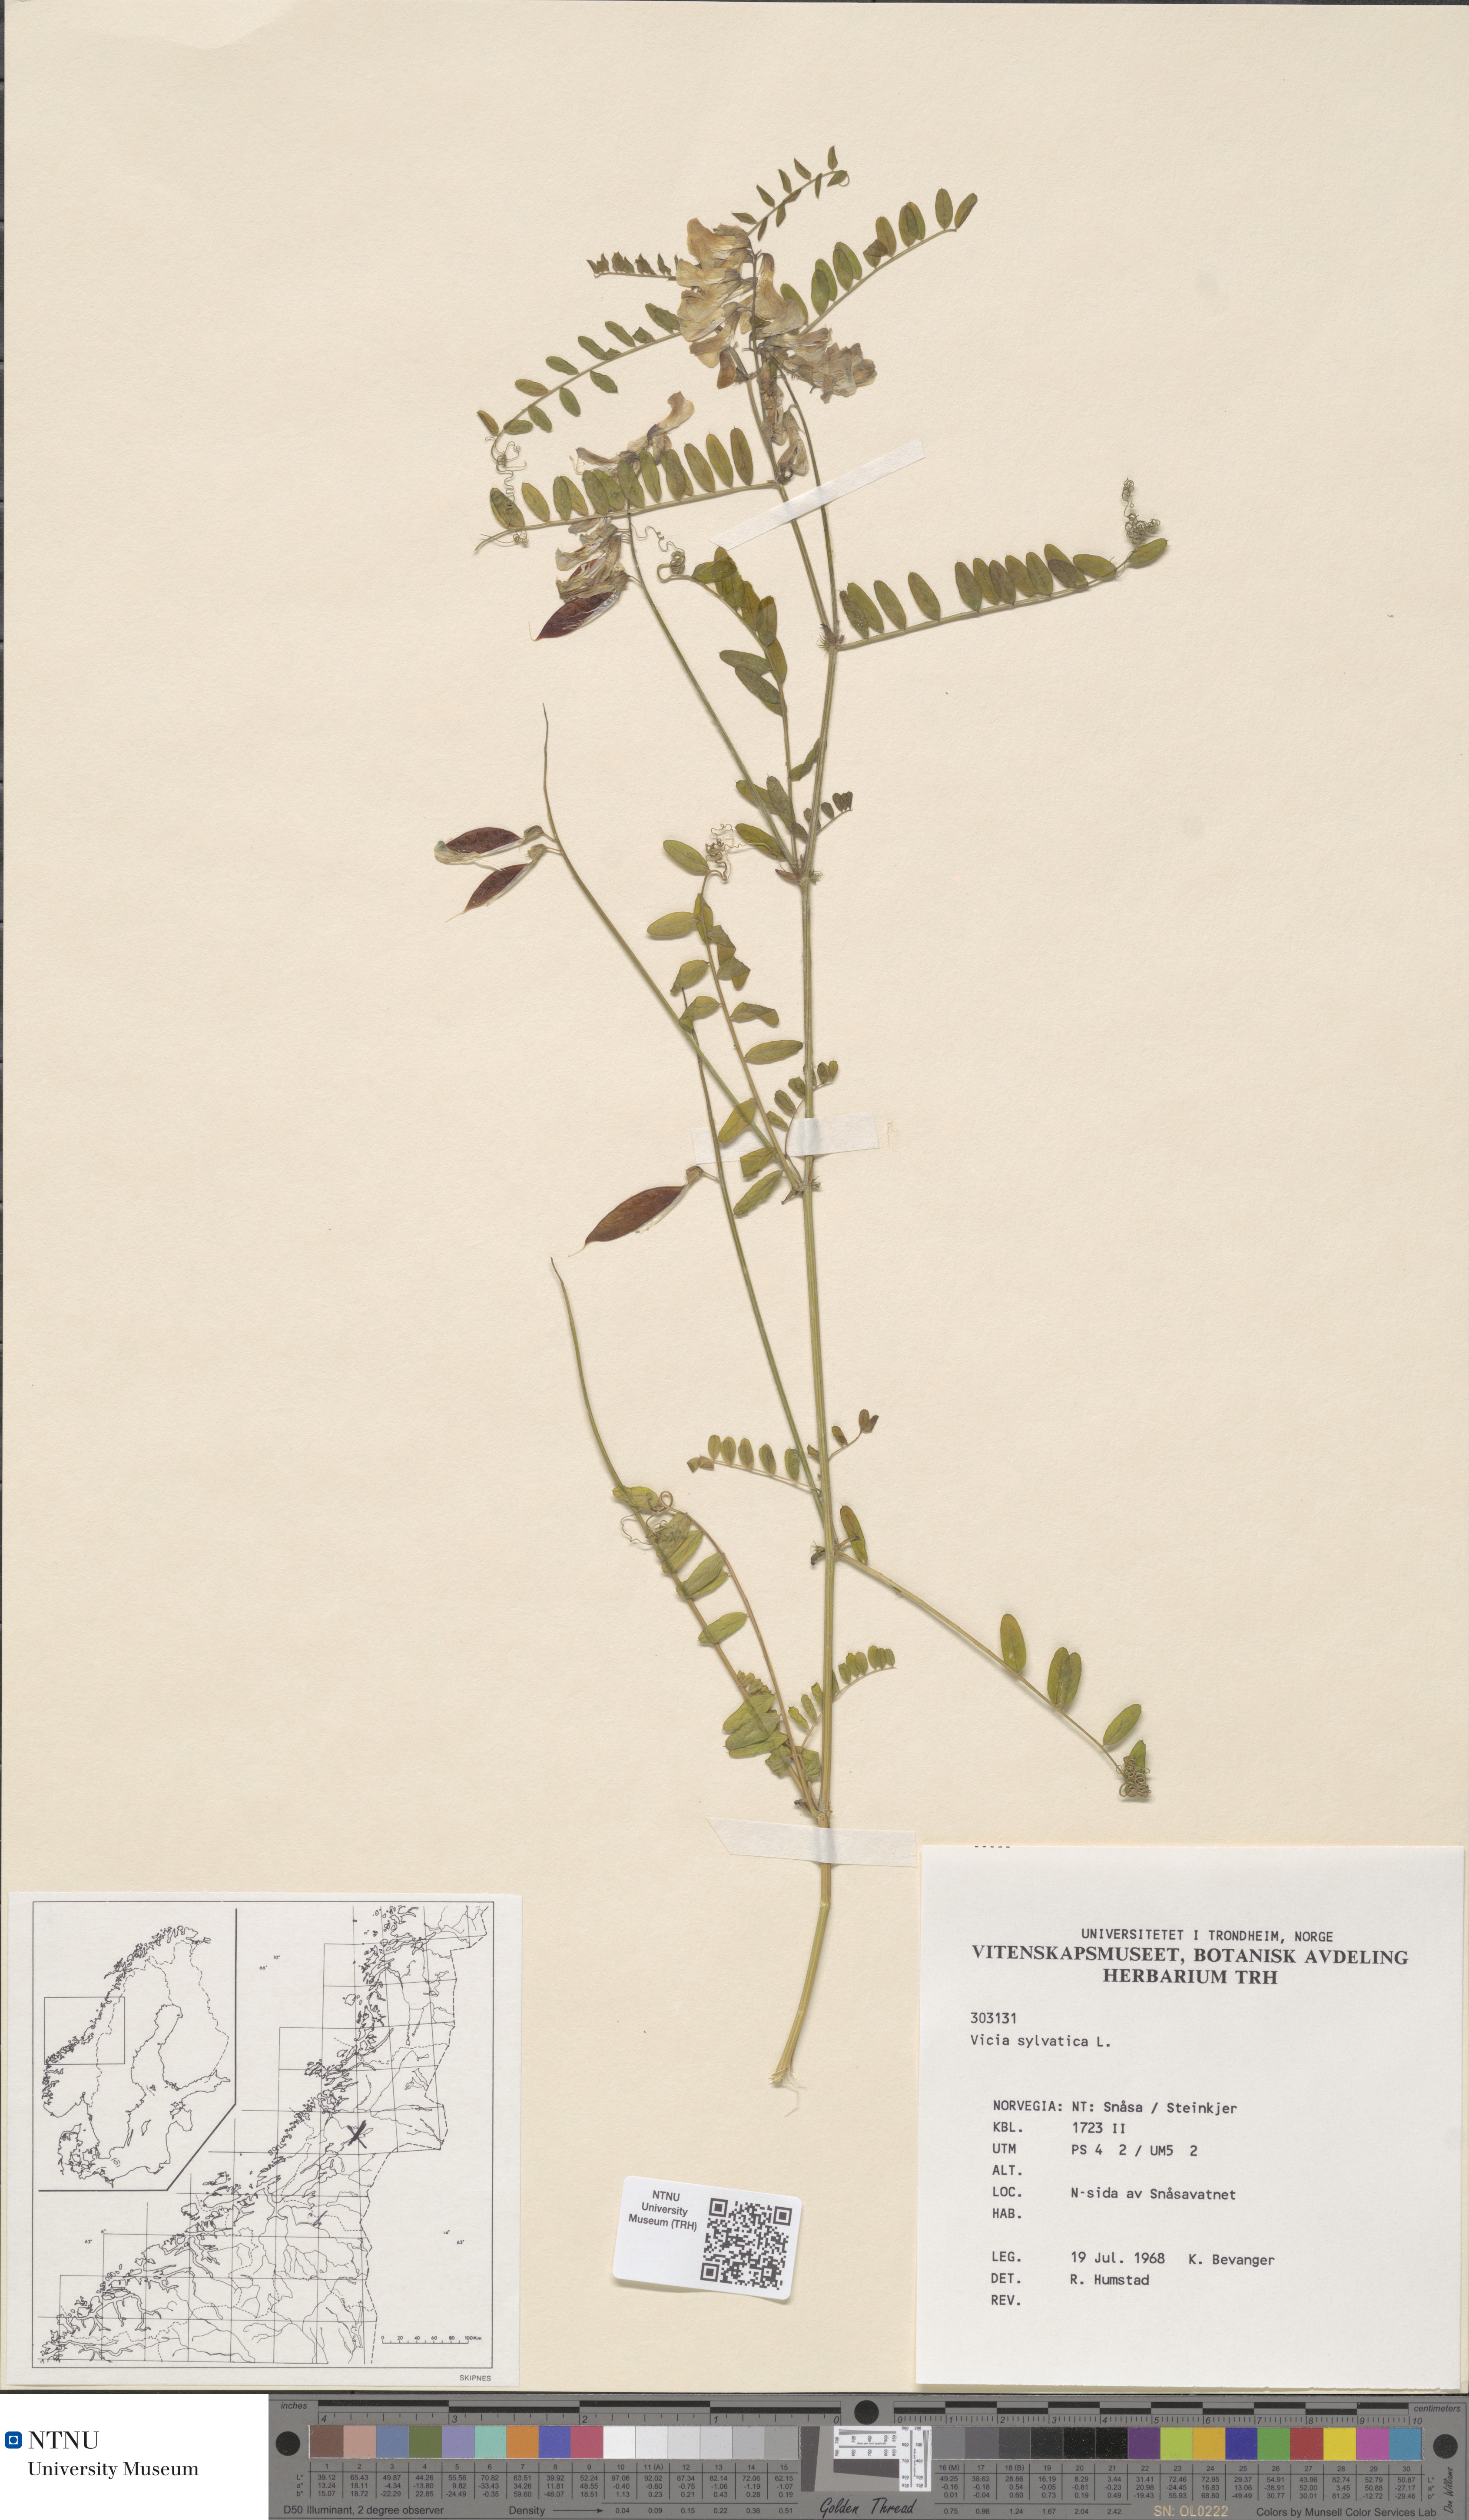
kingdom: Plantae
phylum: Tracheophyta
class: Magnoliopsida
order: Fabales
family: Fabaceae
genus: Vicia
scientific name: Vicia sylvatica
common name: Wood vetch
